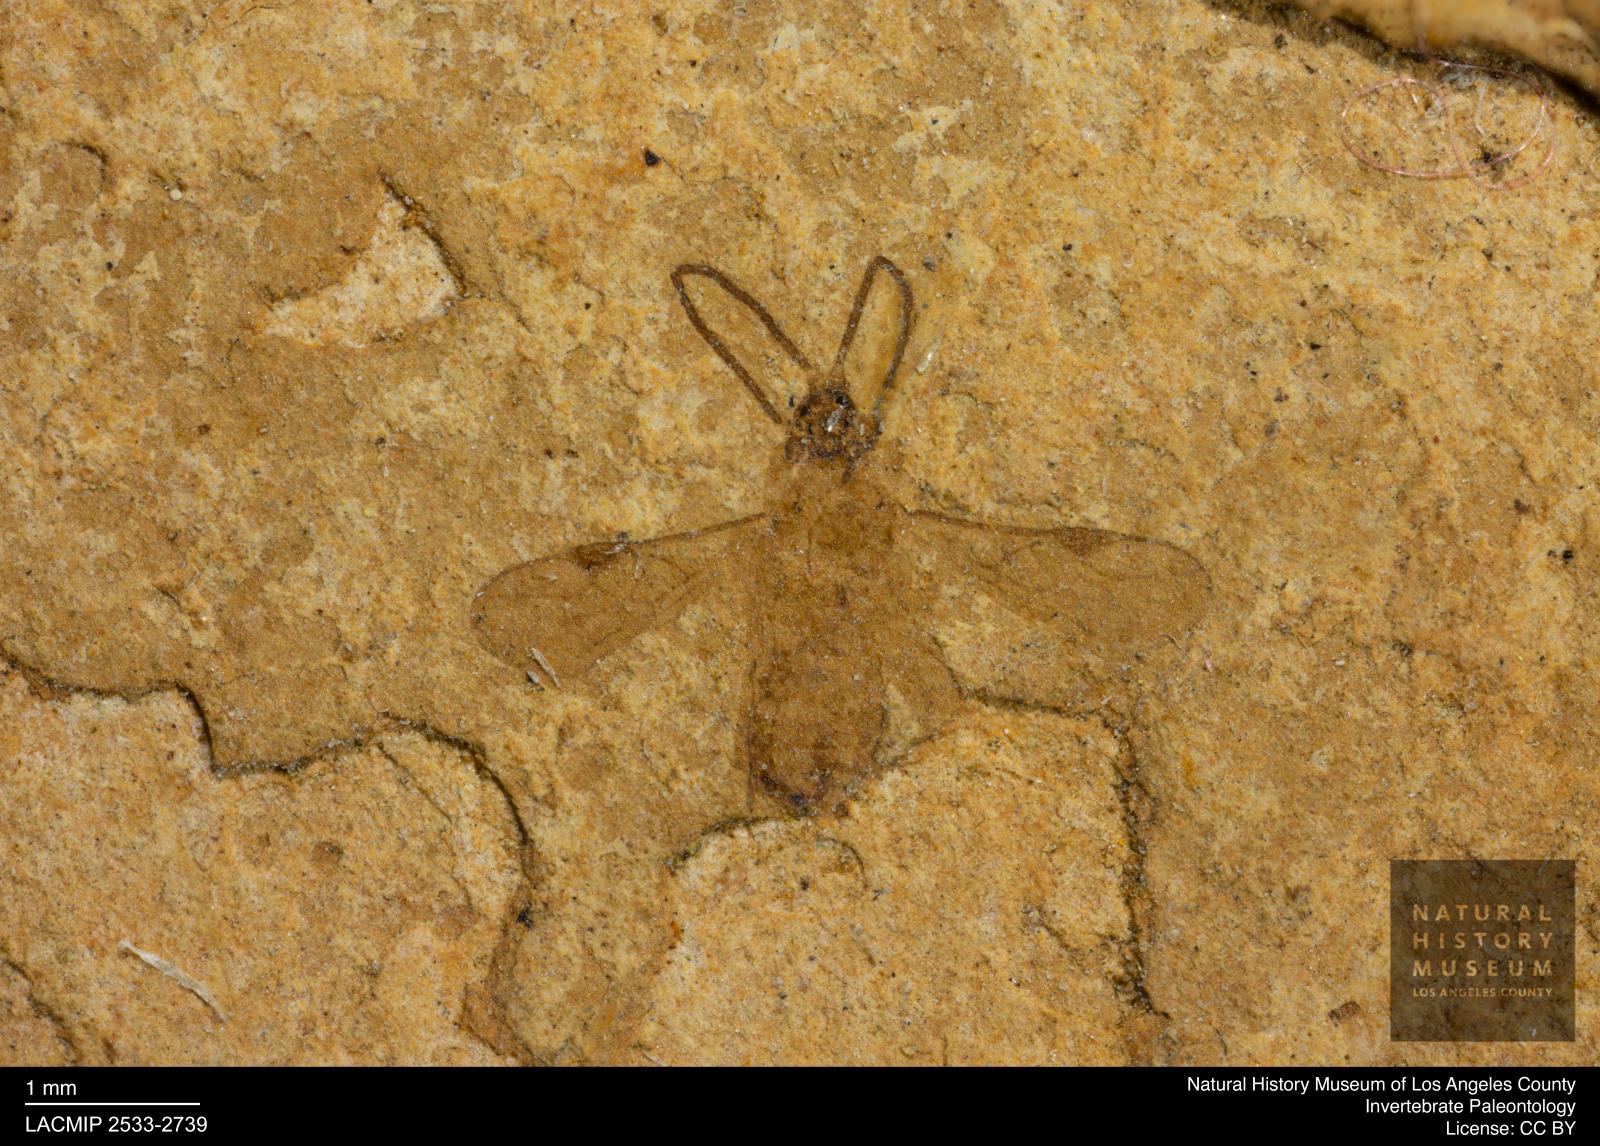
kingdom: Animalia
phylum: Arthropoda
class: Insecta
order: Hymenoptera
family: Braconidae
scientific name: Braconidae
